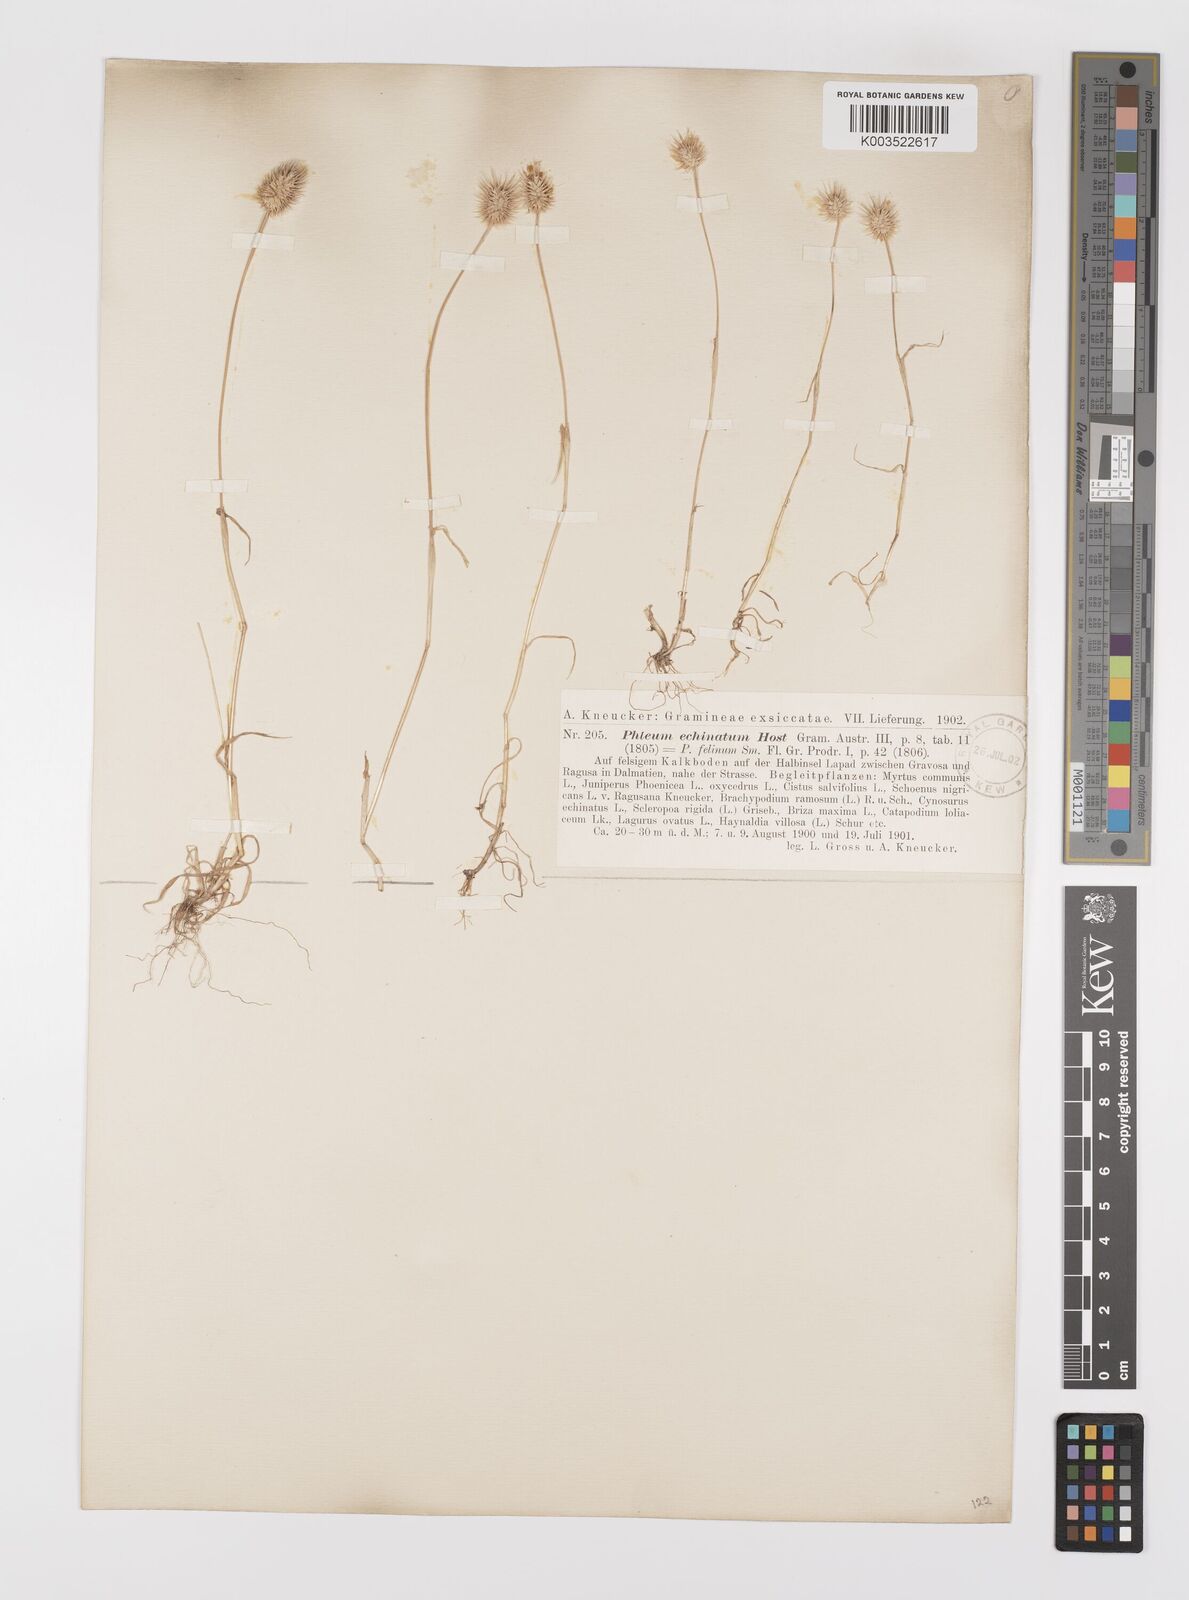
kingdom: Plantae
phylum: Tracheophyta
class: Liliopsida
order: Poales
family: Poaceae
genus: Phleum
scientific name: Phleum echinatum
